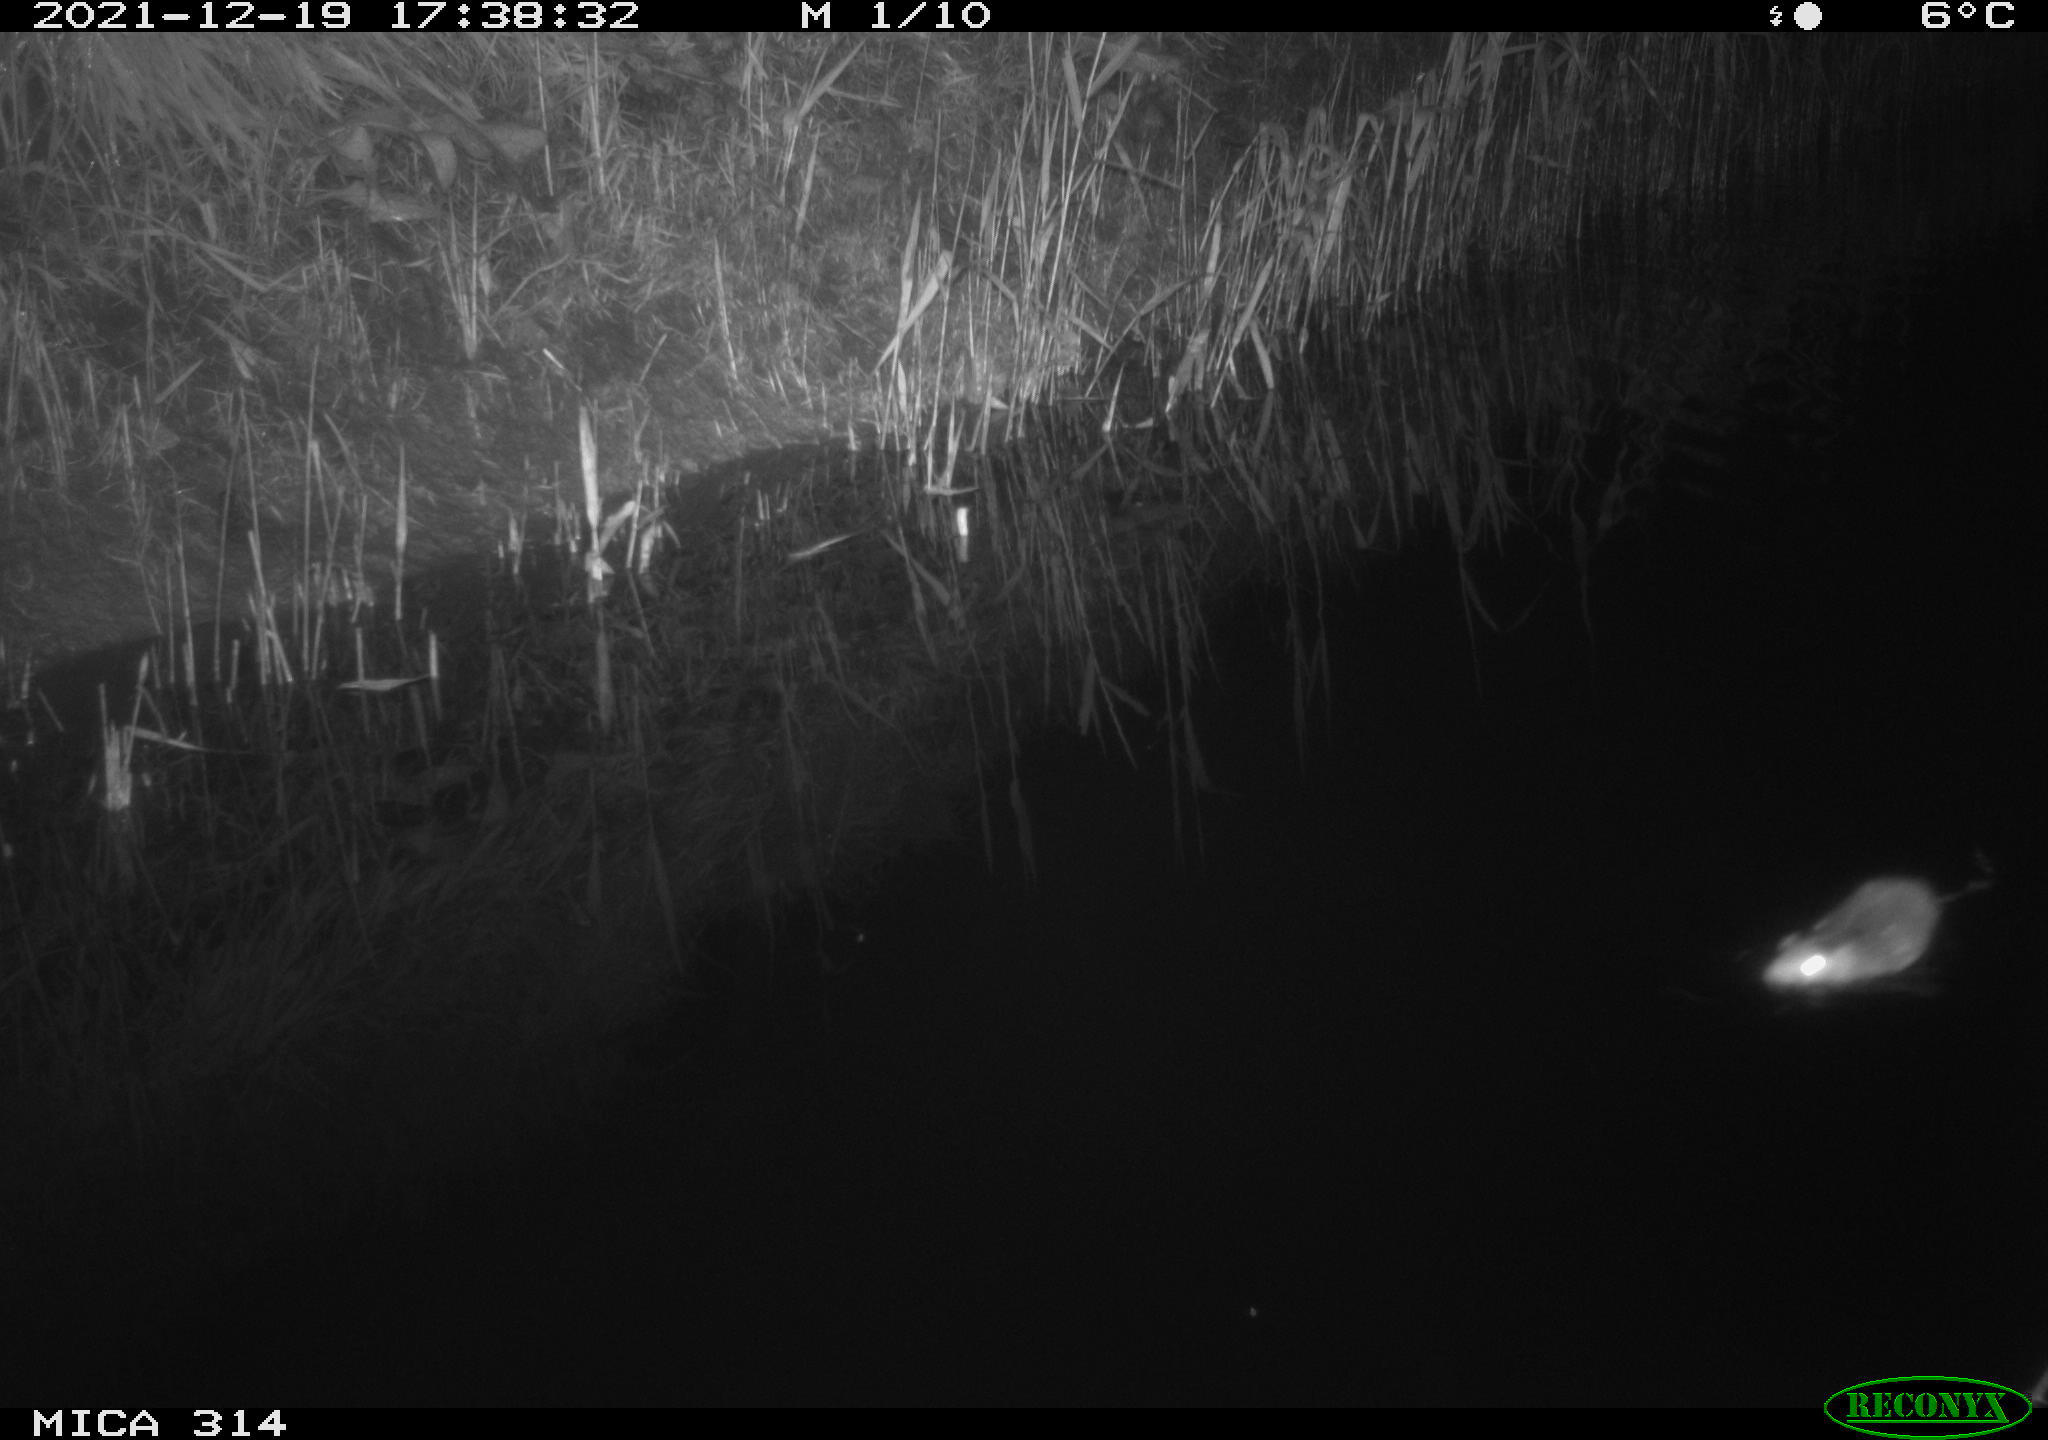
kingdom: Animalia
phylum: Chordata
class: Mammalia
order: Rodentia
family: Cricetidae
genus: Ondatra
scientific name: Ondatra zibethicus
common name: Muskrat
